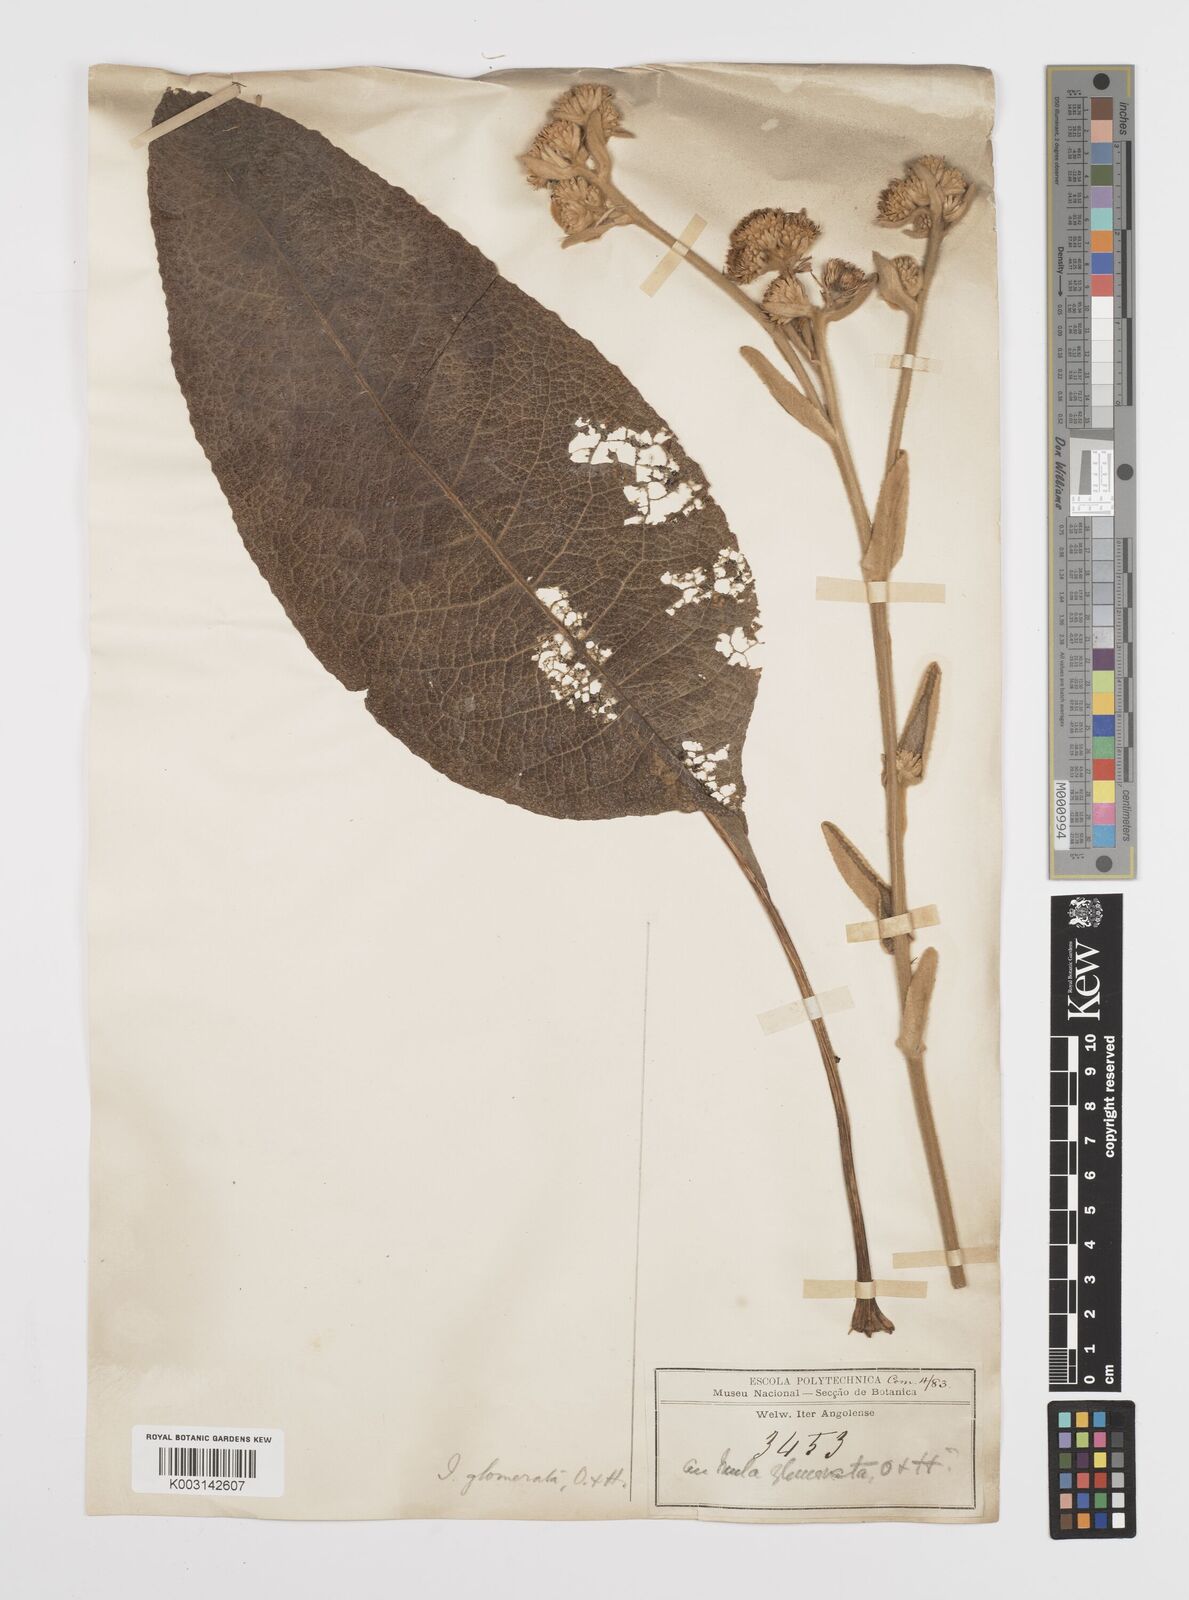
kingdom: Plantae
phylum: Tracheophyta
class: Magnoliopsida
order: Asterales
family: Asteraceae
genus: Inula
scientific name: Inula glomerata
